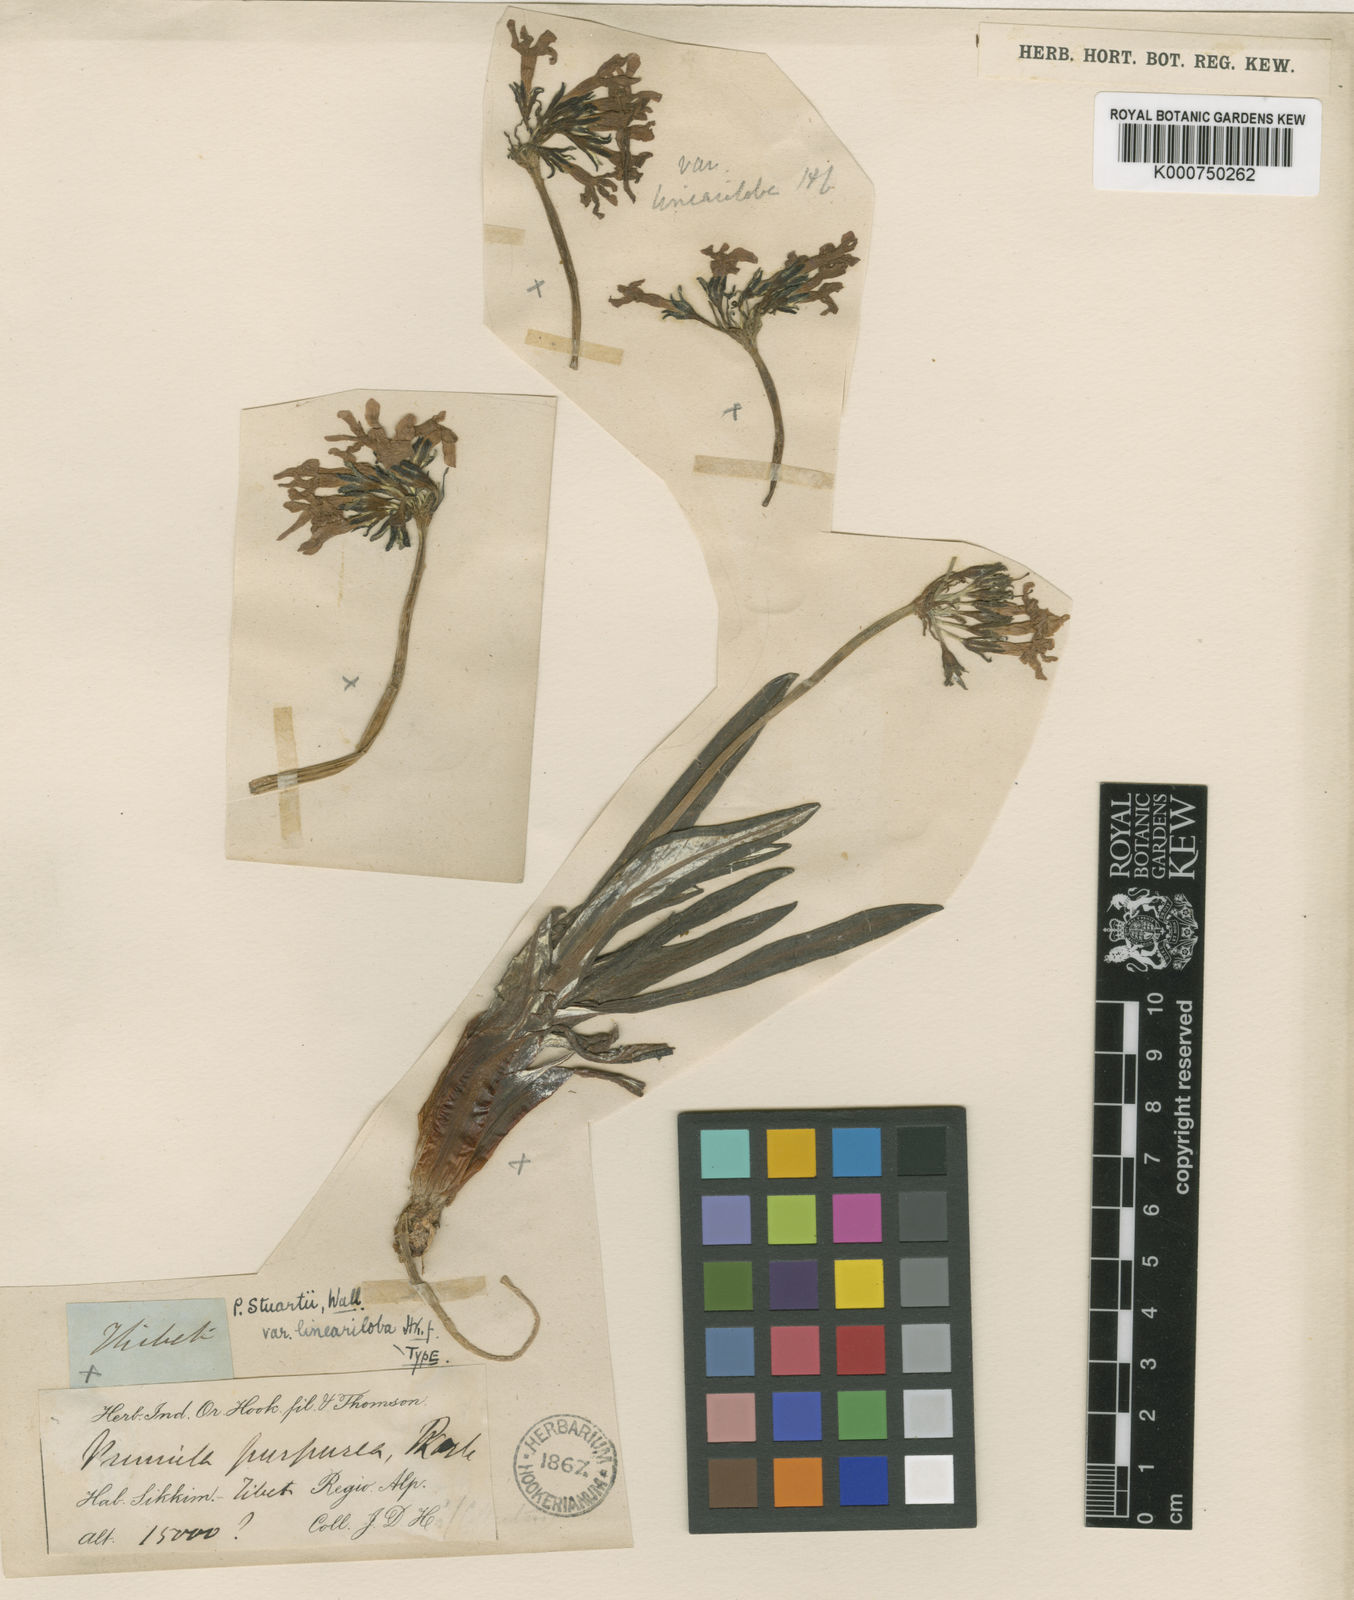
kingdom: Plantae
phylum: Tracheophyta
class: Magnoliopsida
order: Ericales
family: Primulaceae
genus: Primula
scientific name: Primula nivalis
